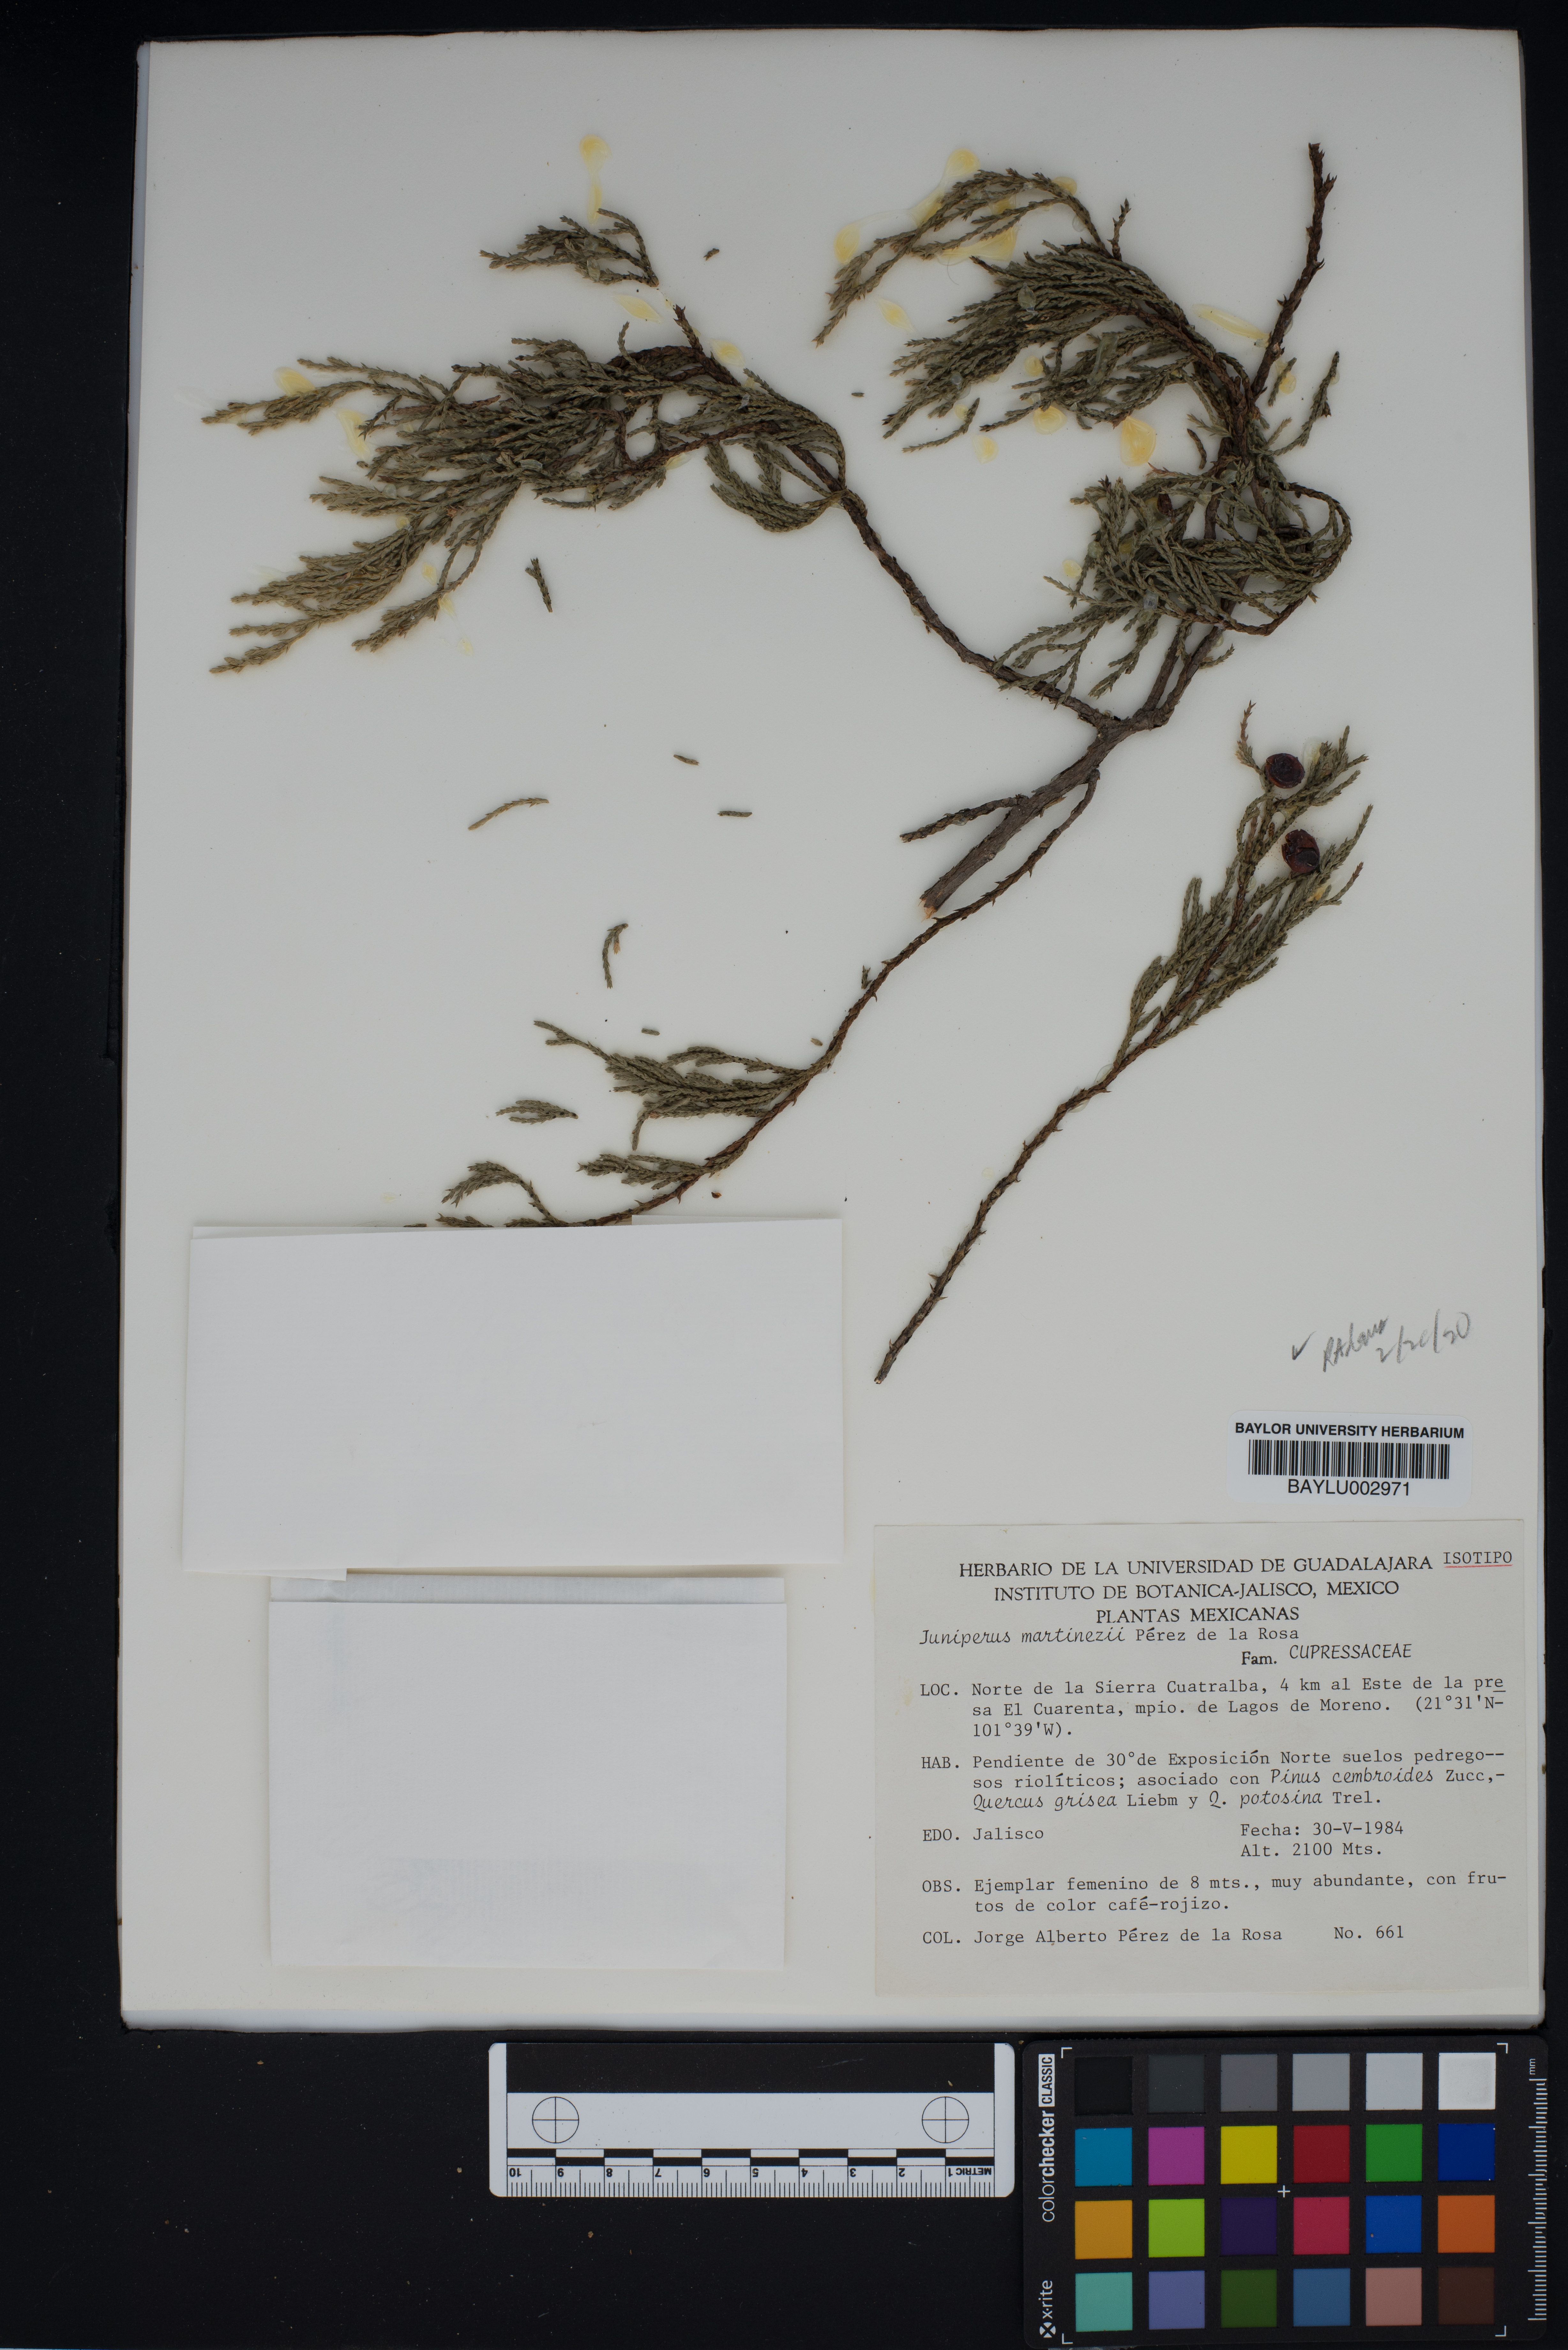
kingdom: Plantae
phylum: Tracheophyta
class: Pinopsida
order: Pinales
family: Cupressaceae
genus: Juniperus
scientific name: Juniperus flaccida
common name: Drooping juniper
